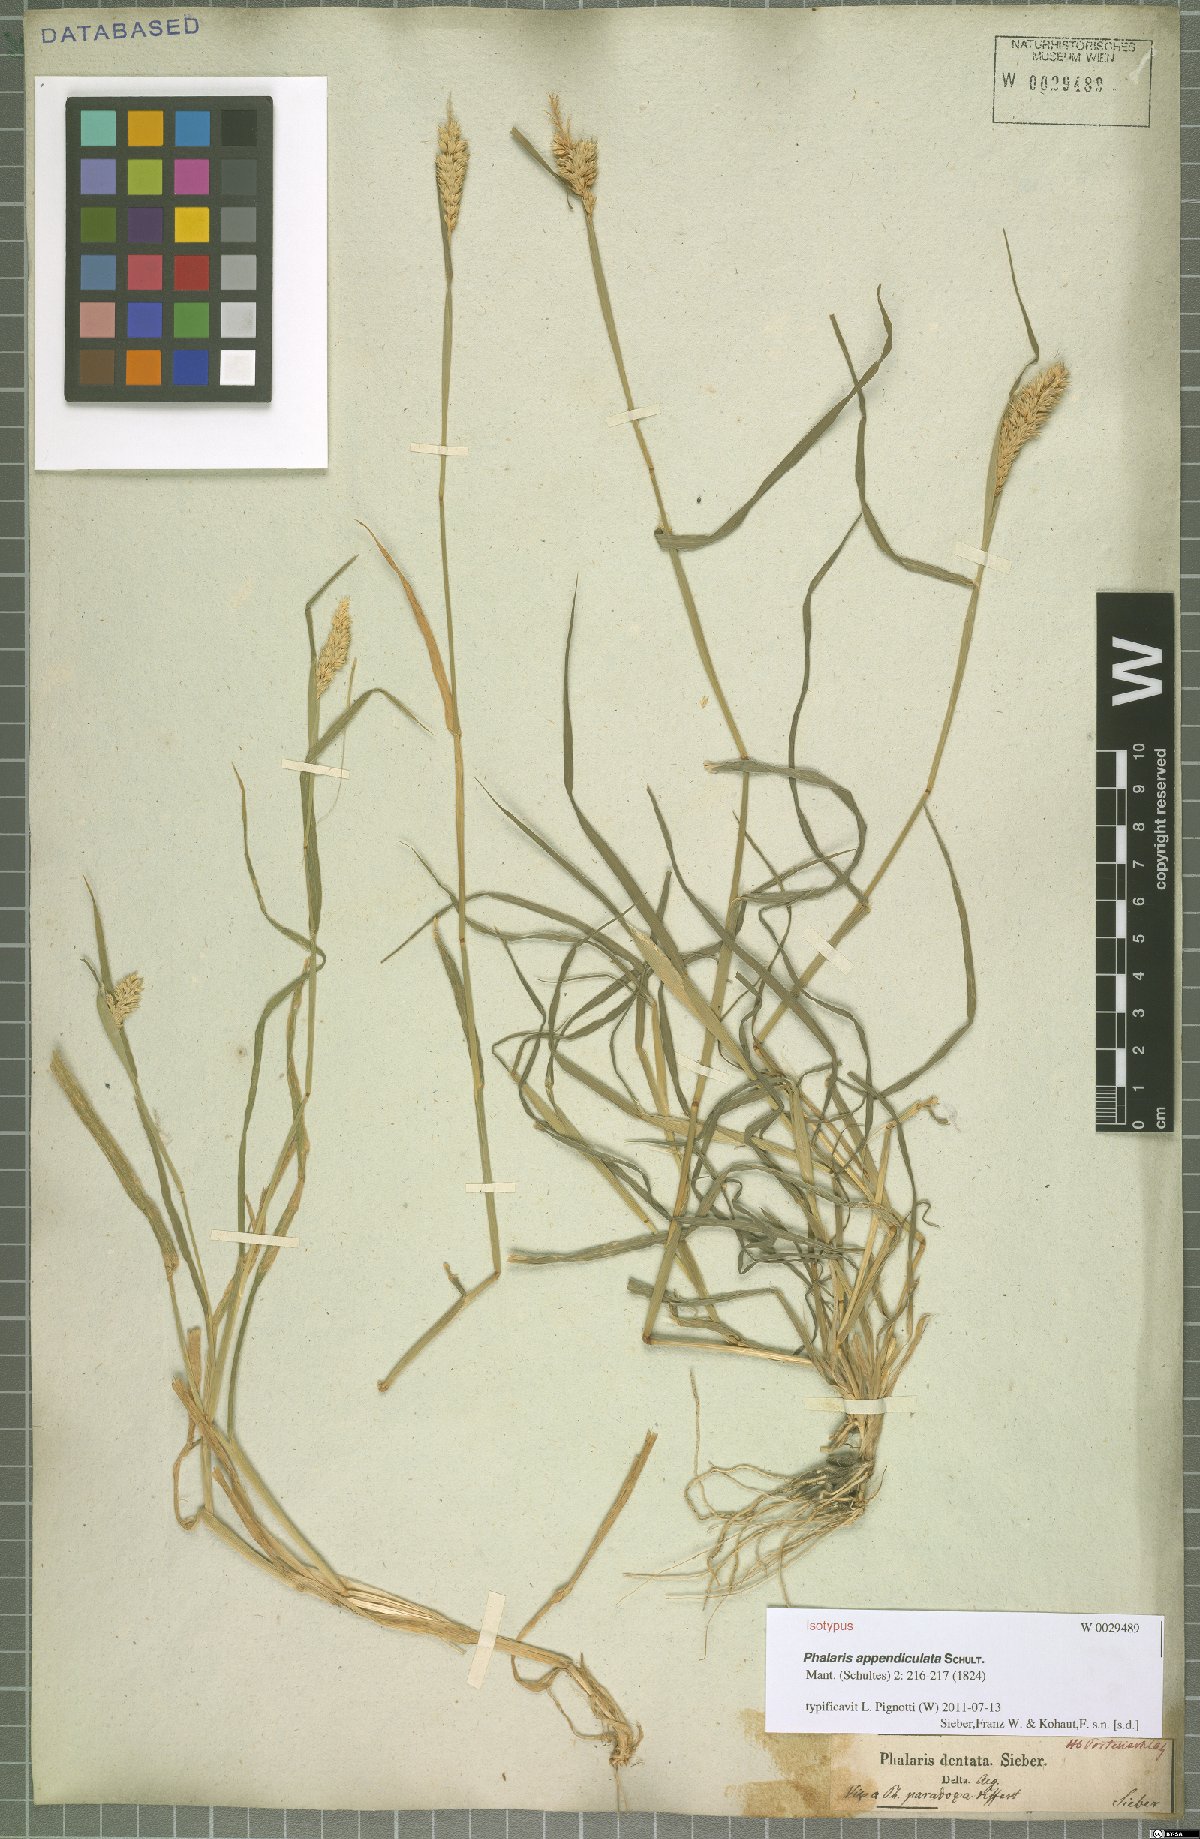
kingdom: Plantae
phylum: Tracheophyta
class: Liliopsida
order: Poales
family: Poaceae
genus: Phalaris
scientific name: Phalaris paradoxa
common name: Awned canary-grass
